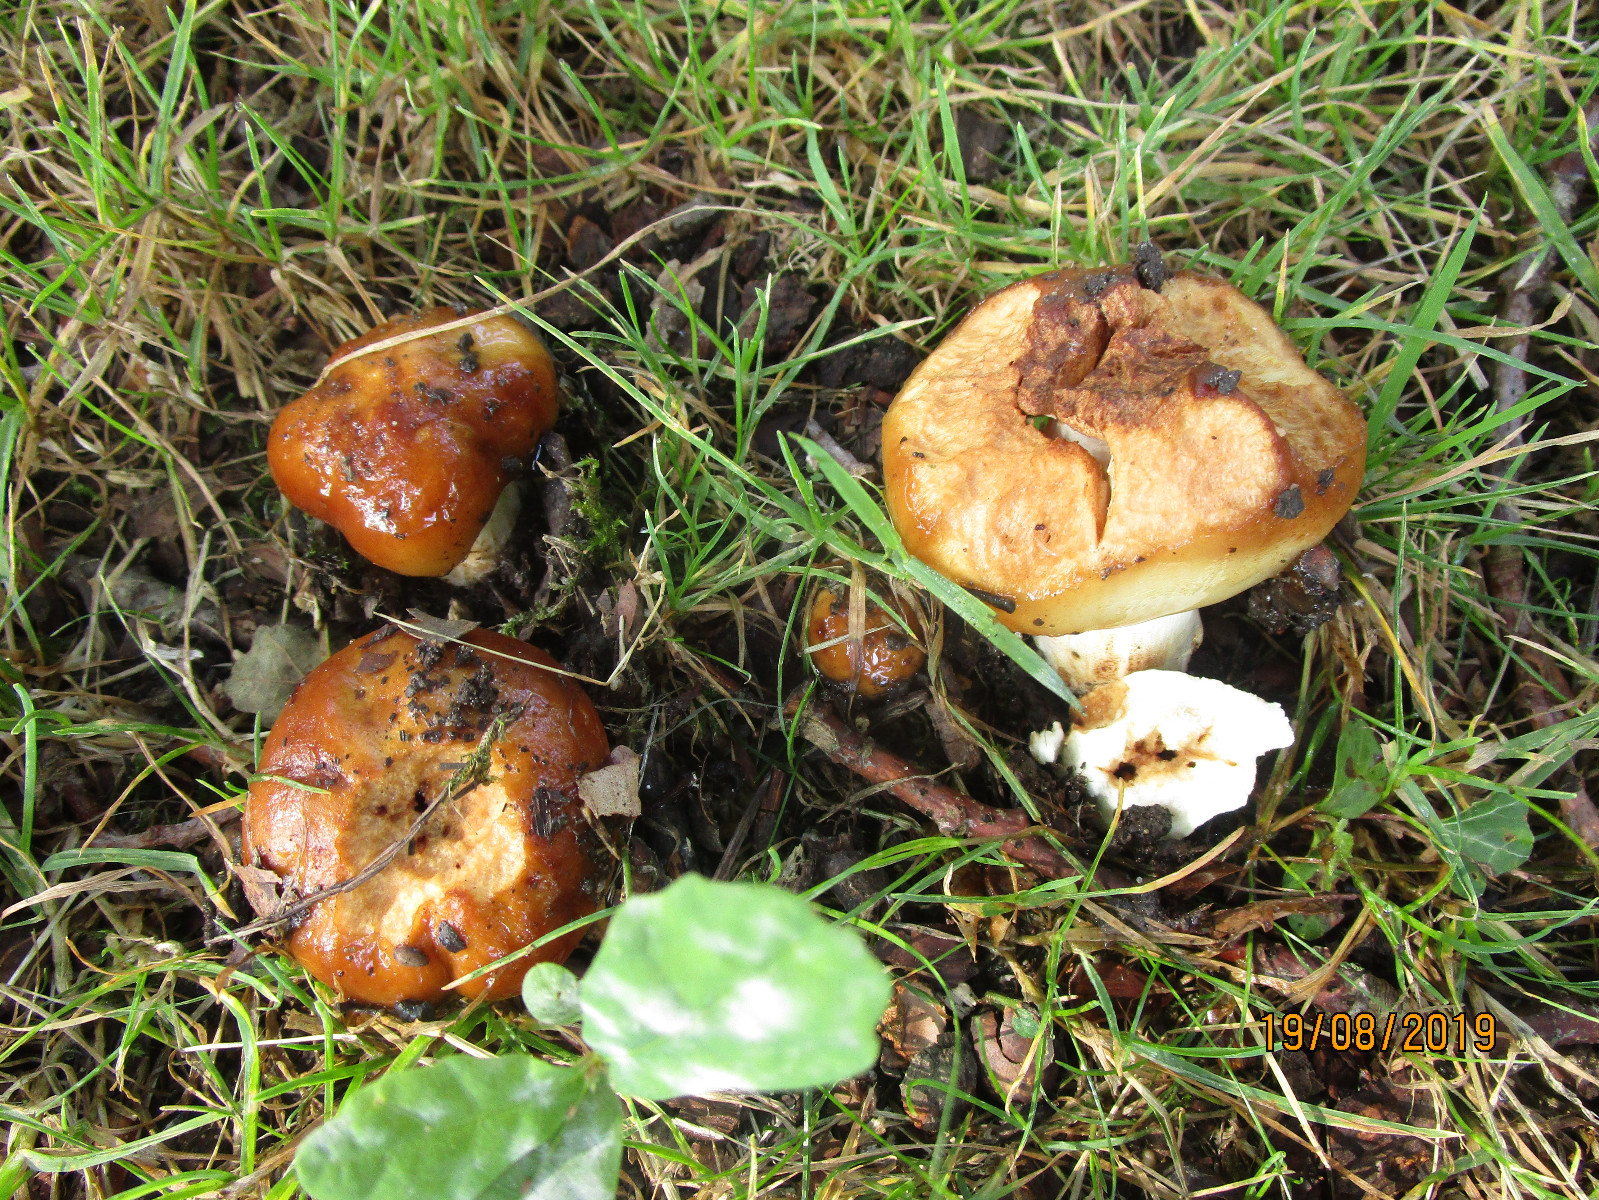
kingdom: Fungi
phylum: Basidiomycota
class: Agaricomycetes
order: Russulales
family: Russulaceae
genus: Russula
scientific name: Russula foetens
